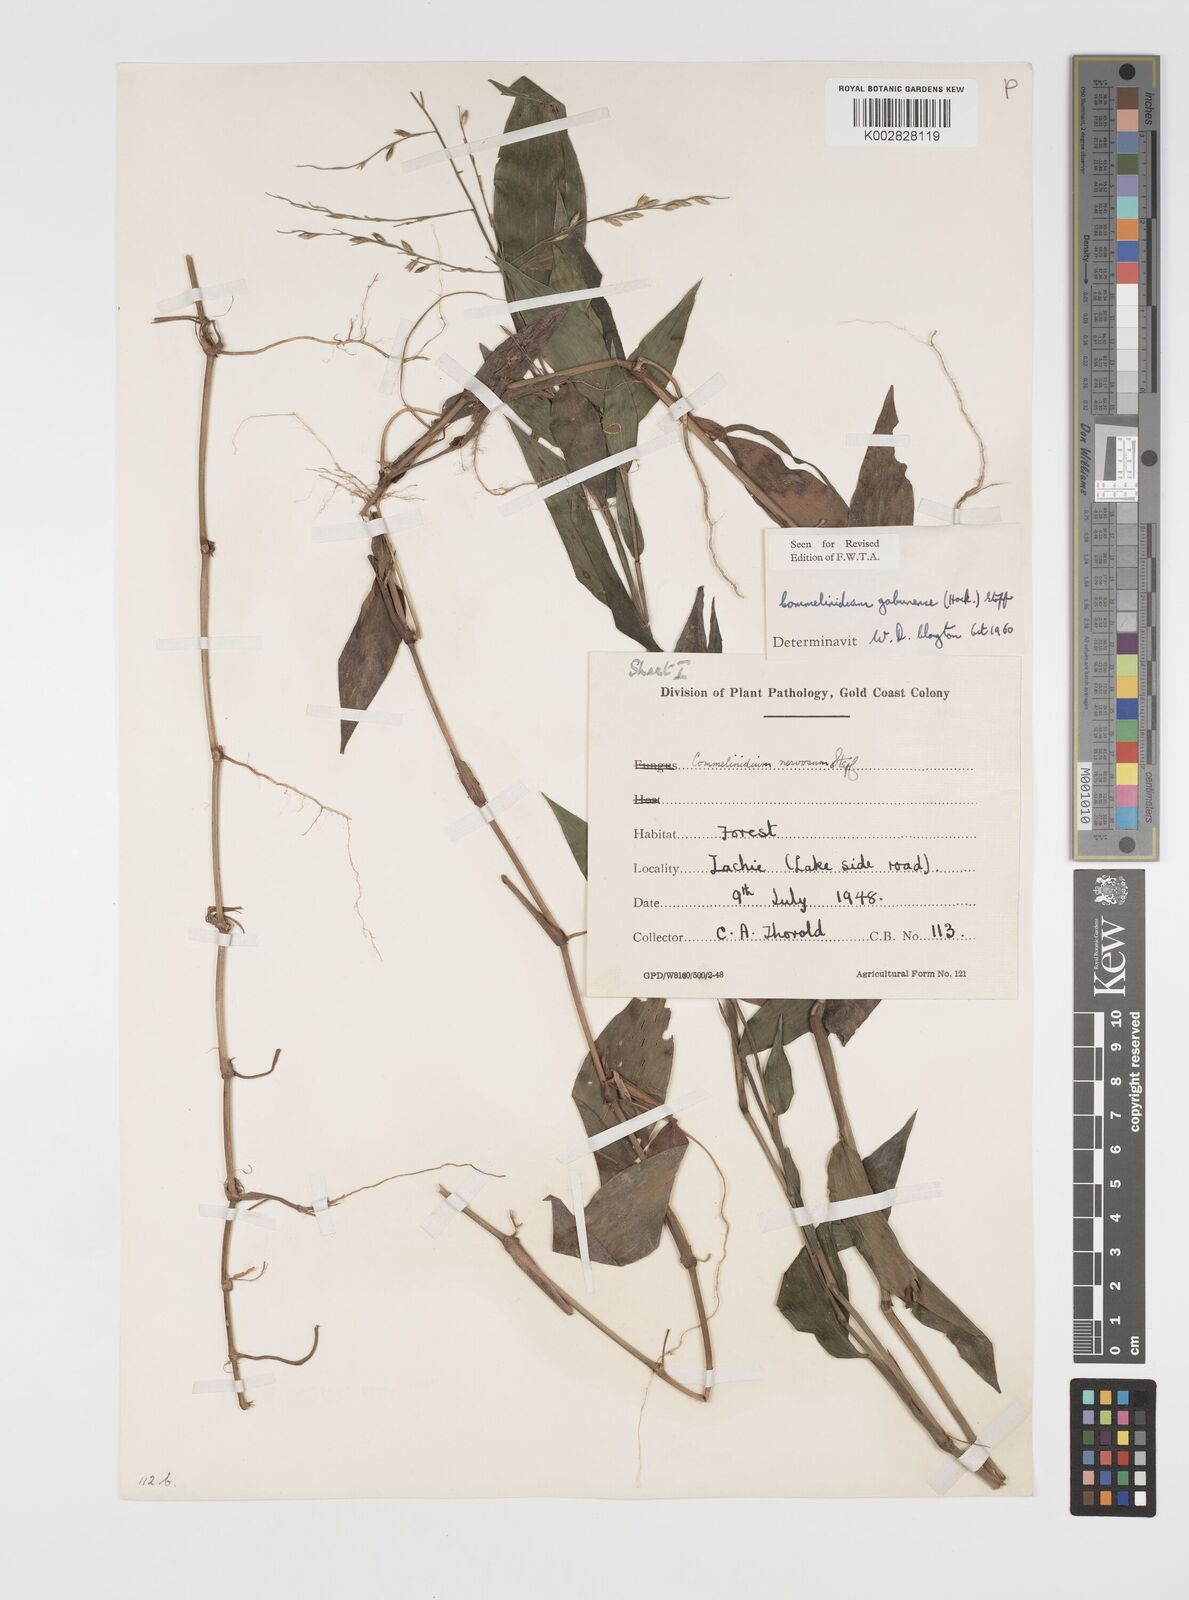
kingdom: Plantae
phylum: Tracheophyta
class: Liliopsida
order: Poales
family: Poaceae
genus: Acroceras
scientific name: Acroceras gabunense
